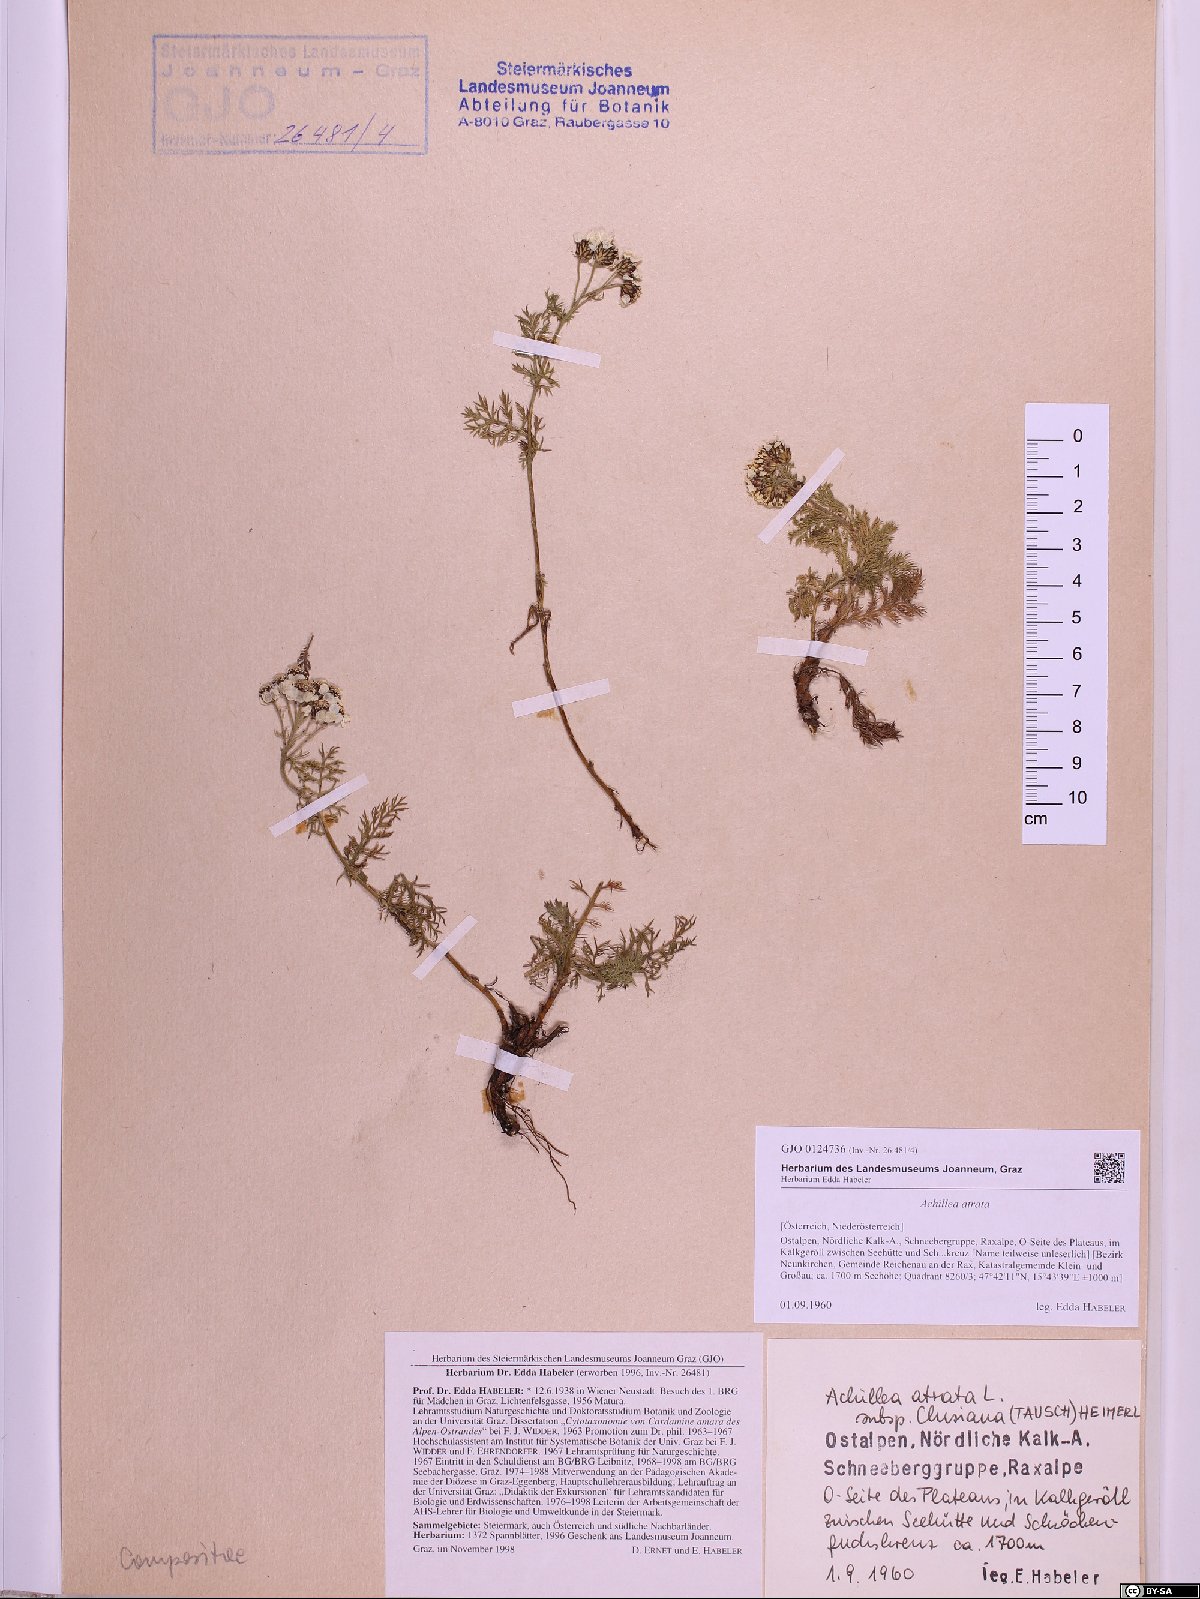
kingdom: Plantae
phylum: Tracheophyta
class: Magnoliopsida
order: Asterales
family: Asteraceae
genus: Achillea
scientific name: Achillea atrata
